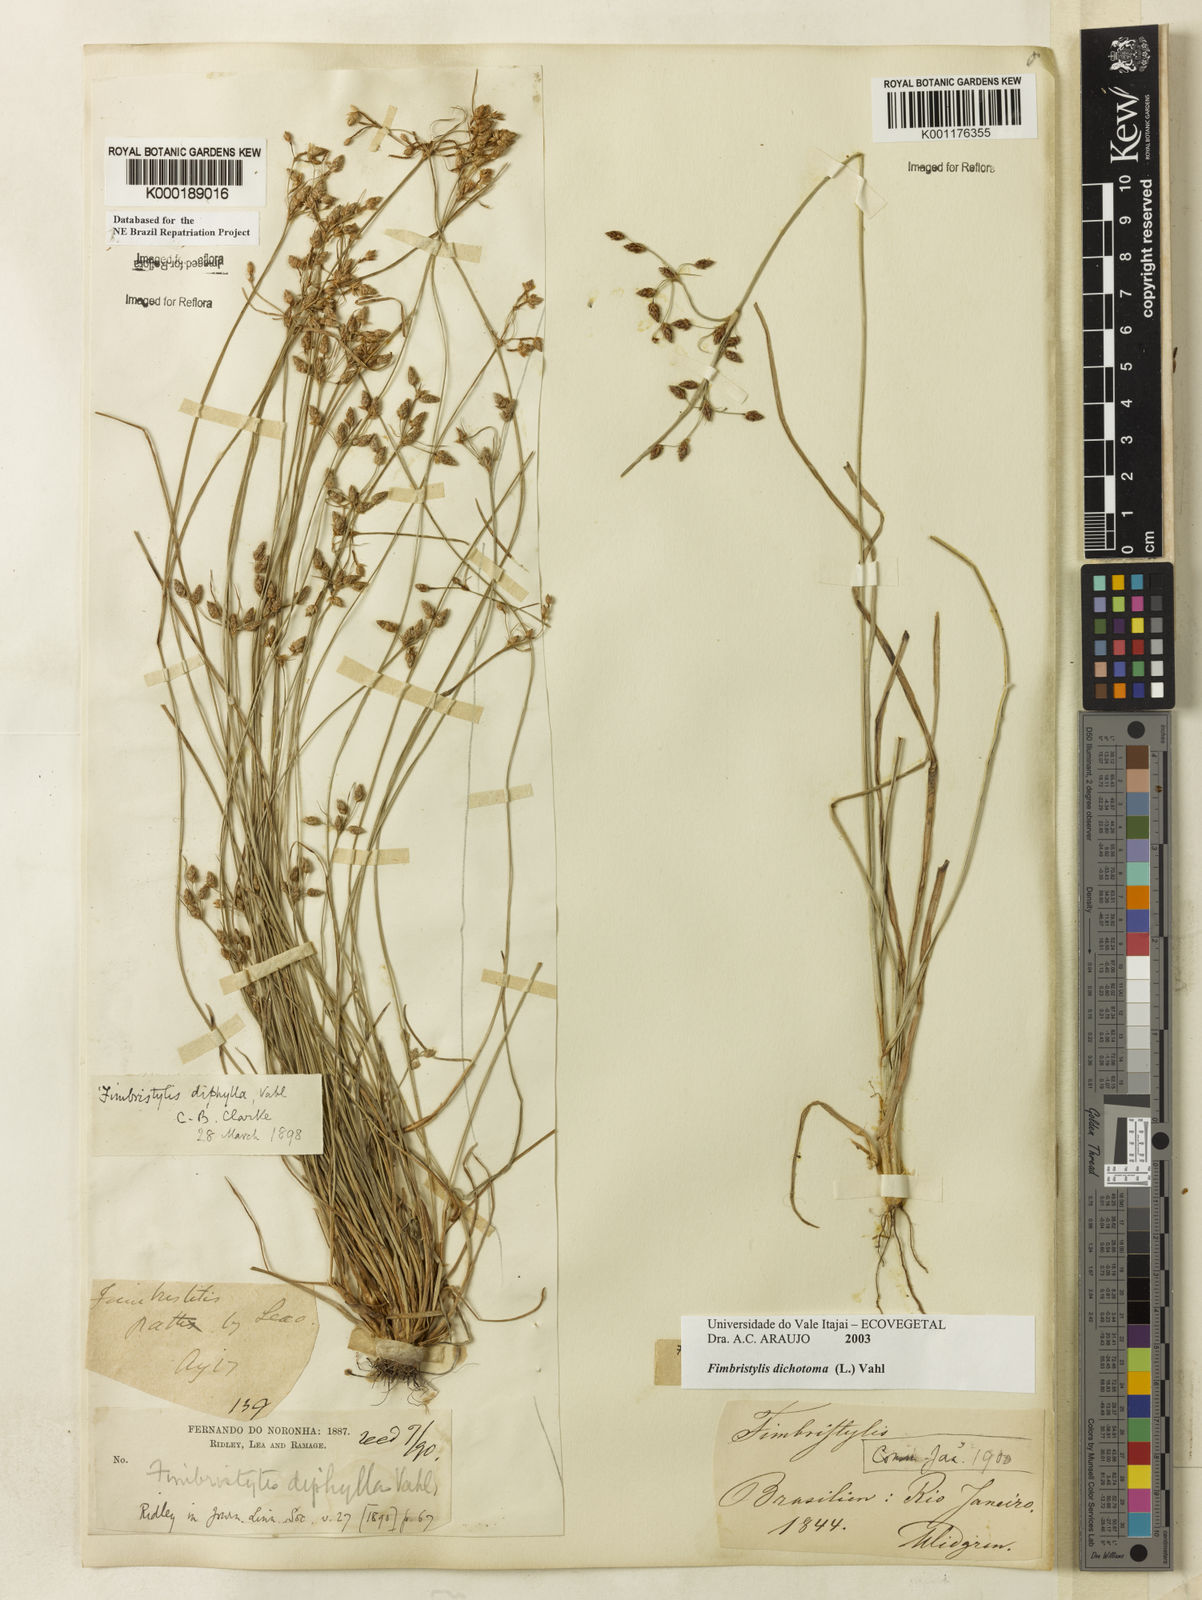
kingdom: Plantae
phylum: Tracheophyta
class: Liliopsida
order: Poales
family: Cyperaceae
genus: Fimbristylis
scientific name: Fimbristylis dichotoma
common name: Forked fimbry
